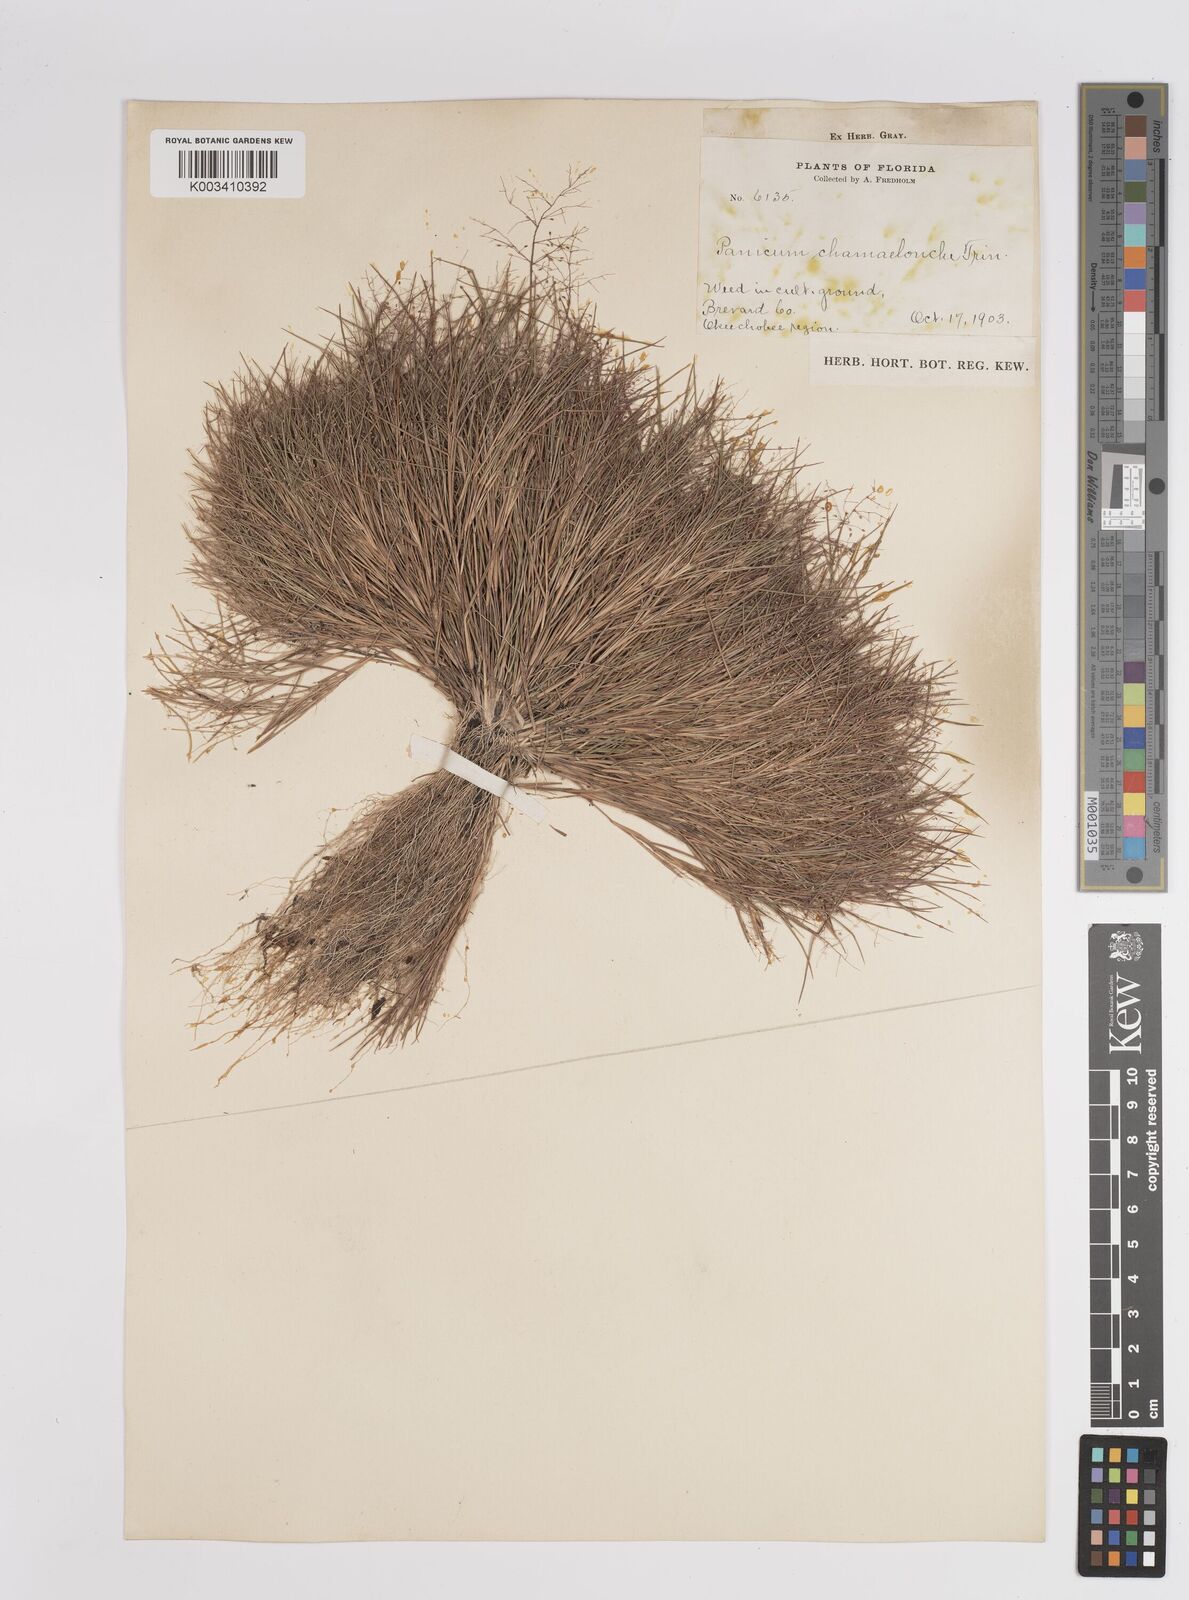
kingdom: Plantae
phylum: Tracheophyta
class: Liliopsida
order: Poales
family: Poaceae
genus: Dichanthelium
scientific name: Dichanthelium chamaelonche
